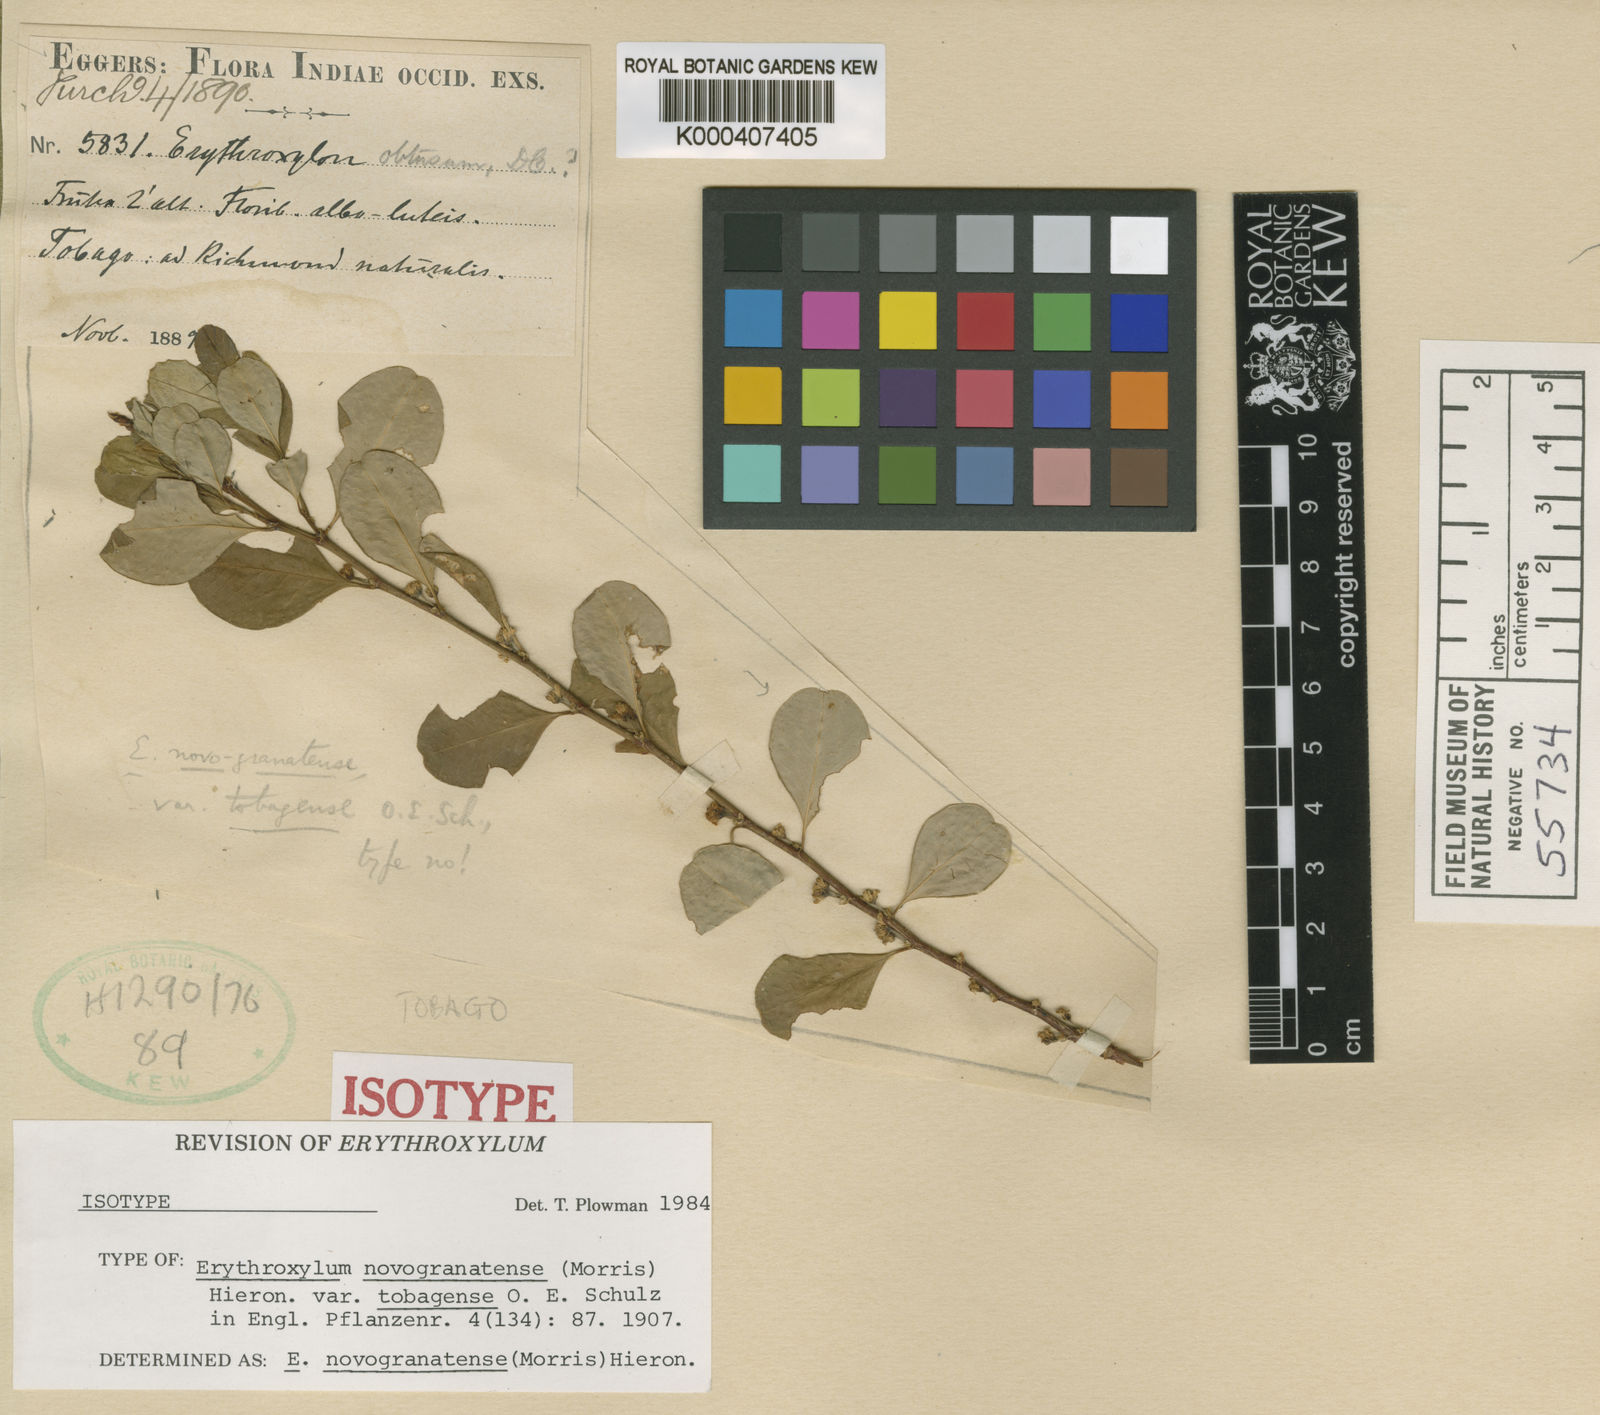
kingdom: Plantae
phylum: Tracheophyta
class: Magnoliopsida
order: Malpighiales
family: Erythroxylaceae
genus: Erythroxylum
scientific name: Erythroxylum novogranatense
